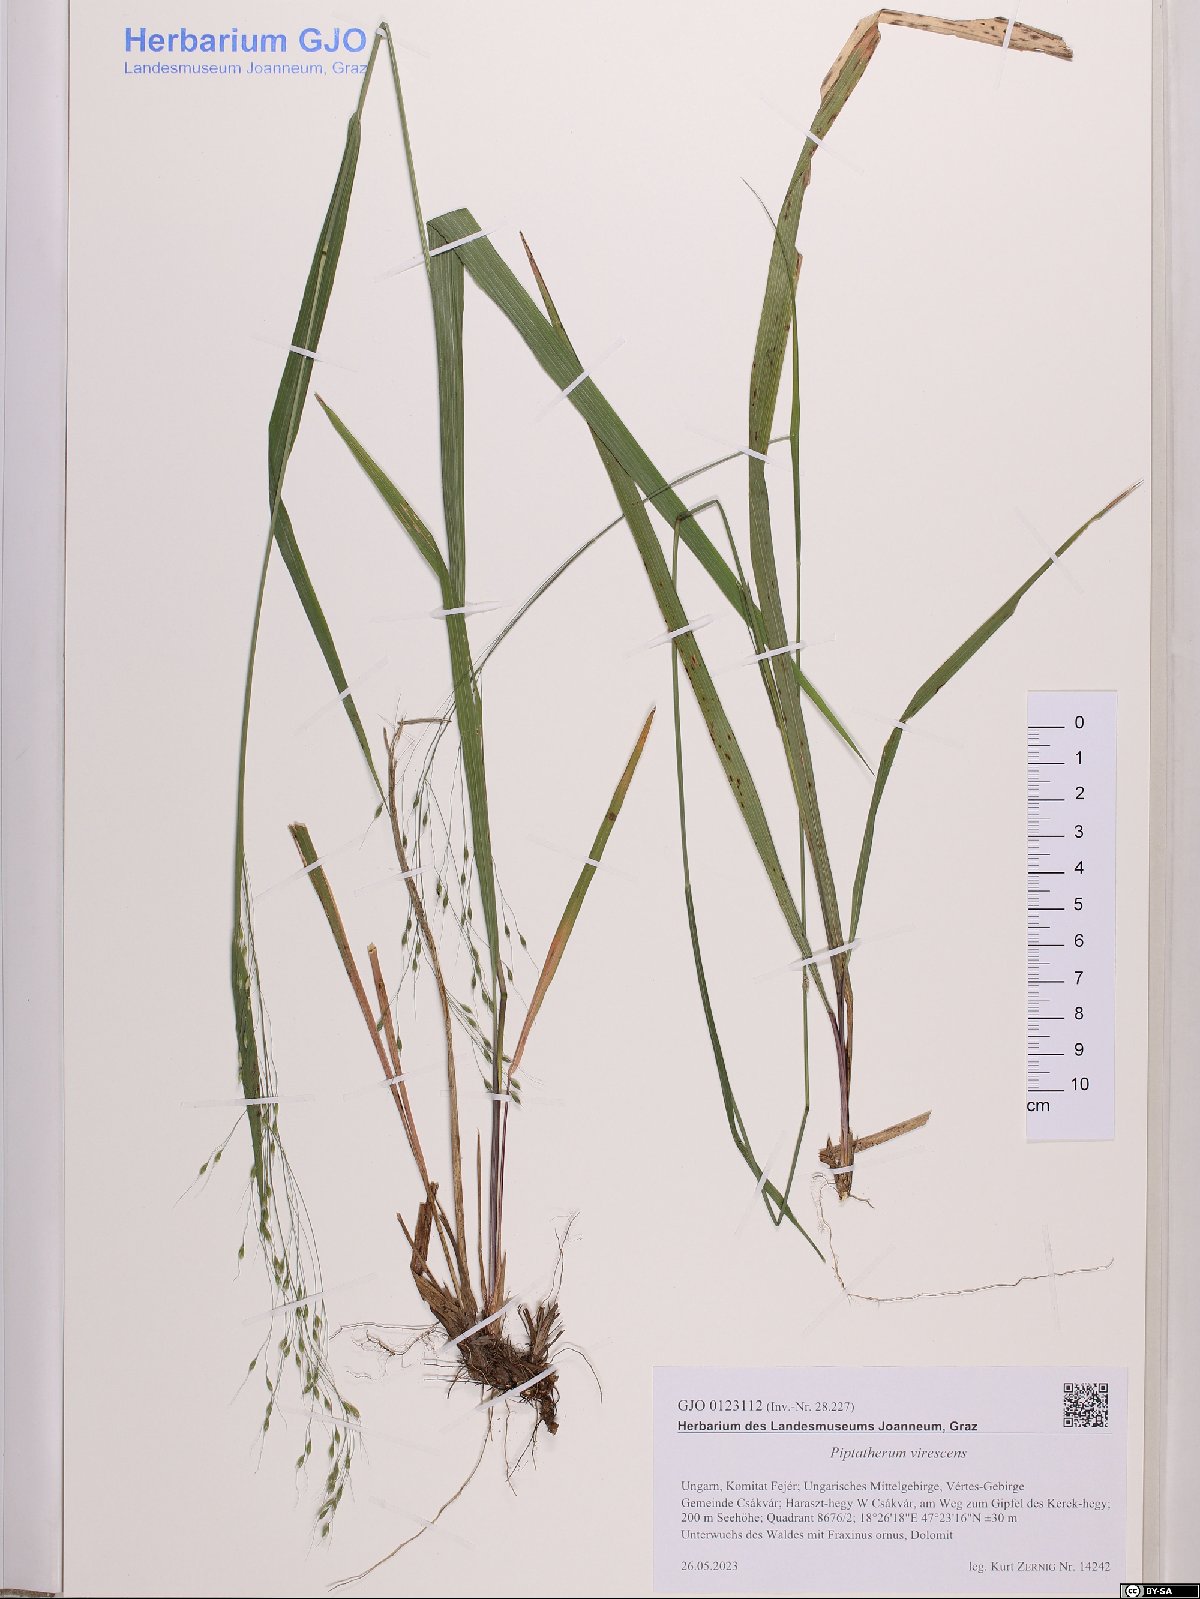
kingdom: Plantae
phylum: Tracheophyta
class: Liliopsida
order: Poales
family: Poaceae
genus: Achnatherum
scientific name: Achnatherum virescens
